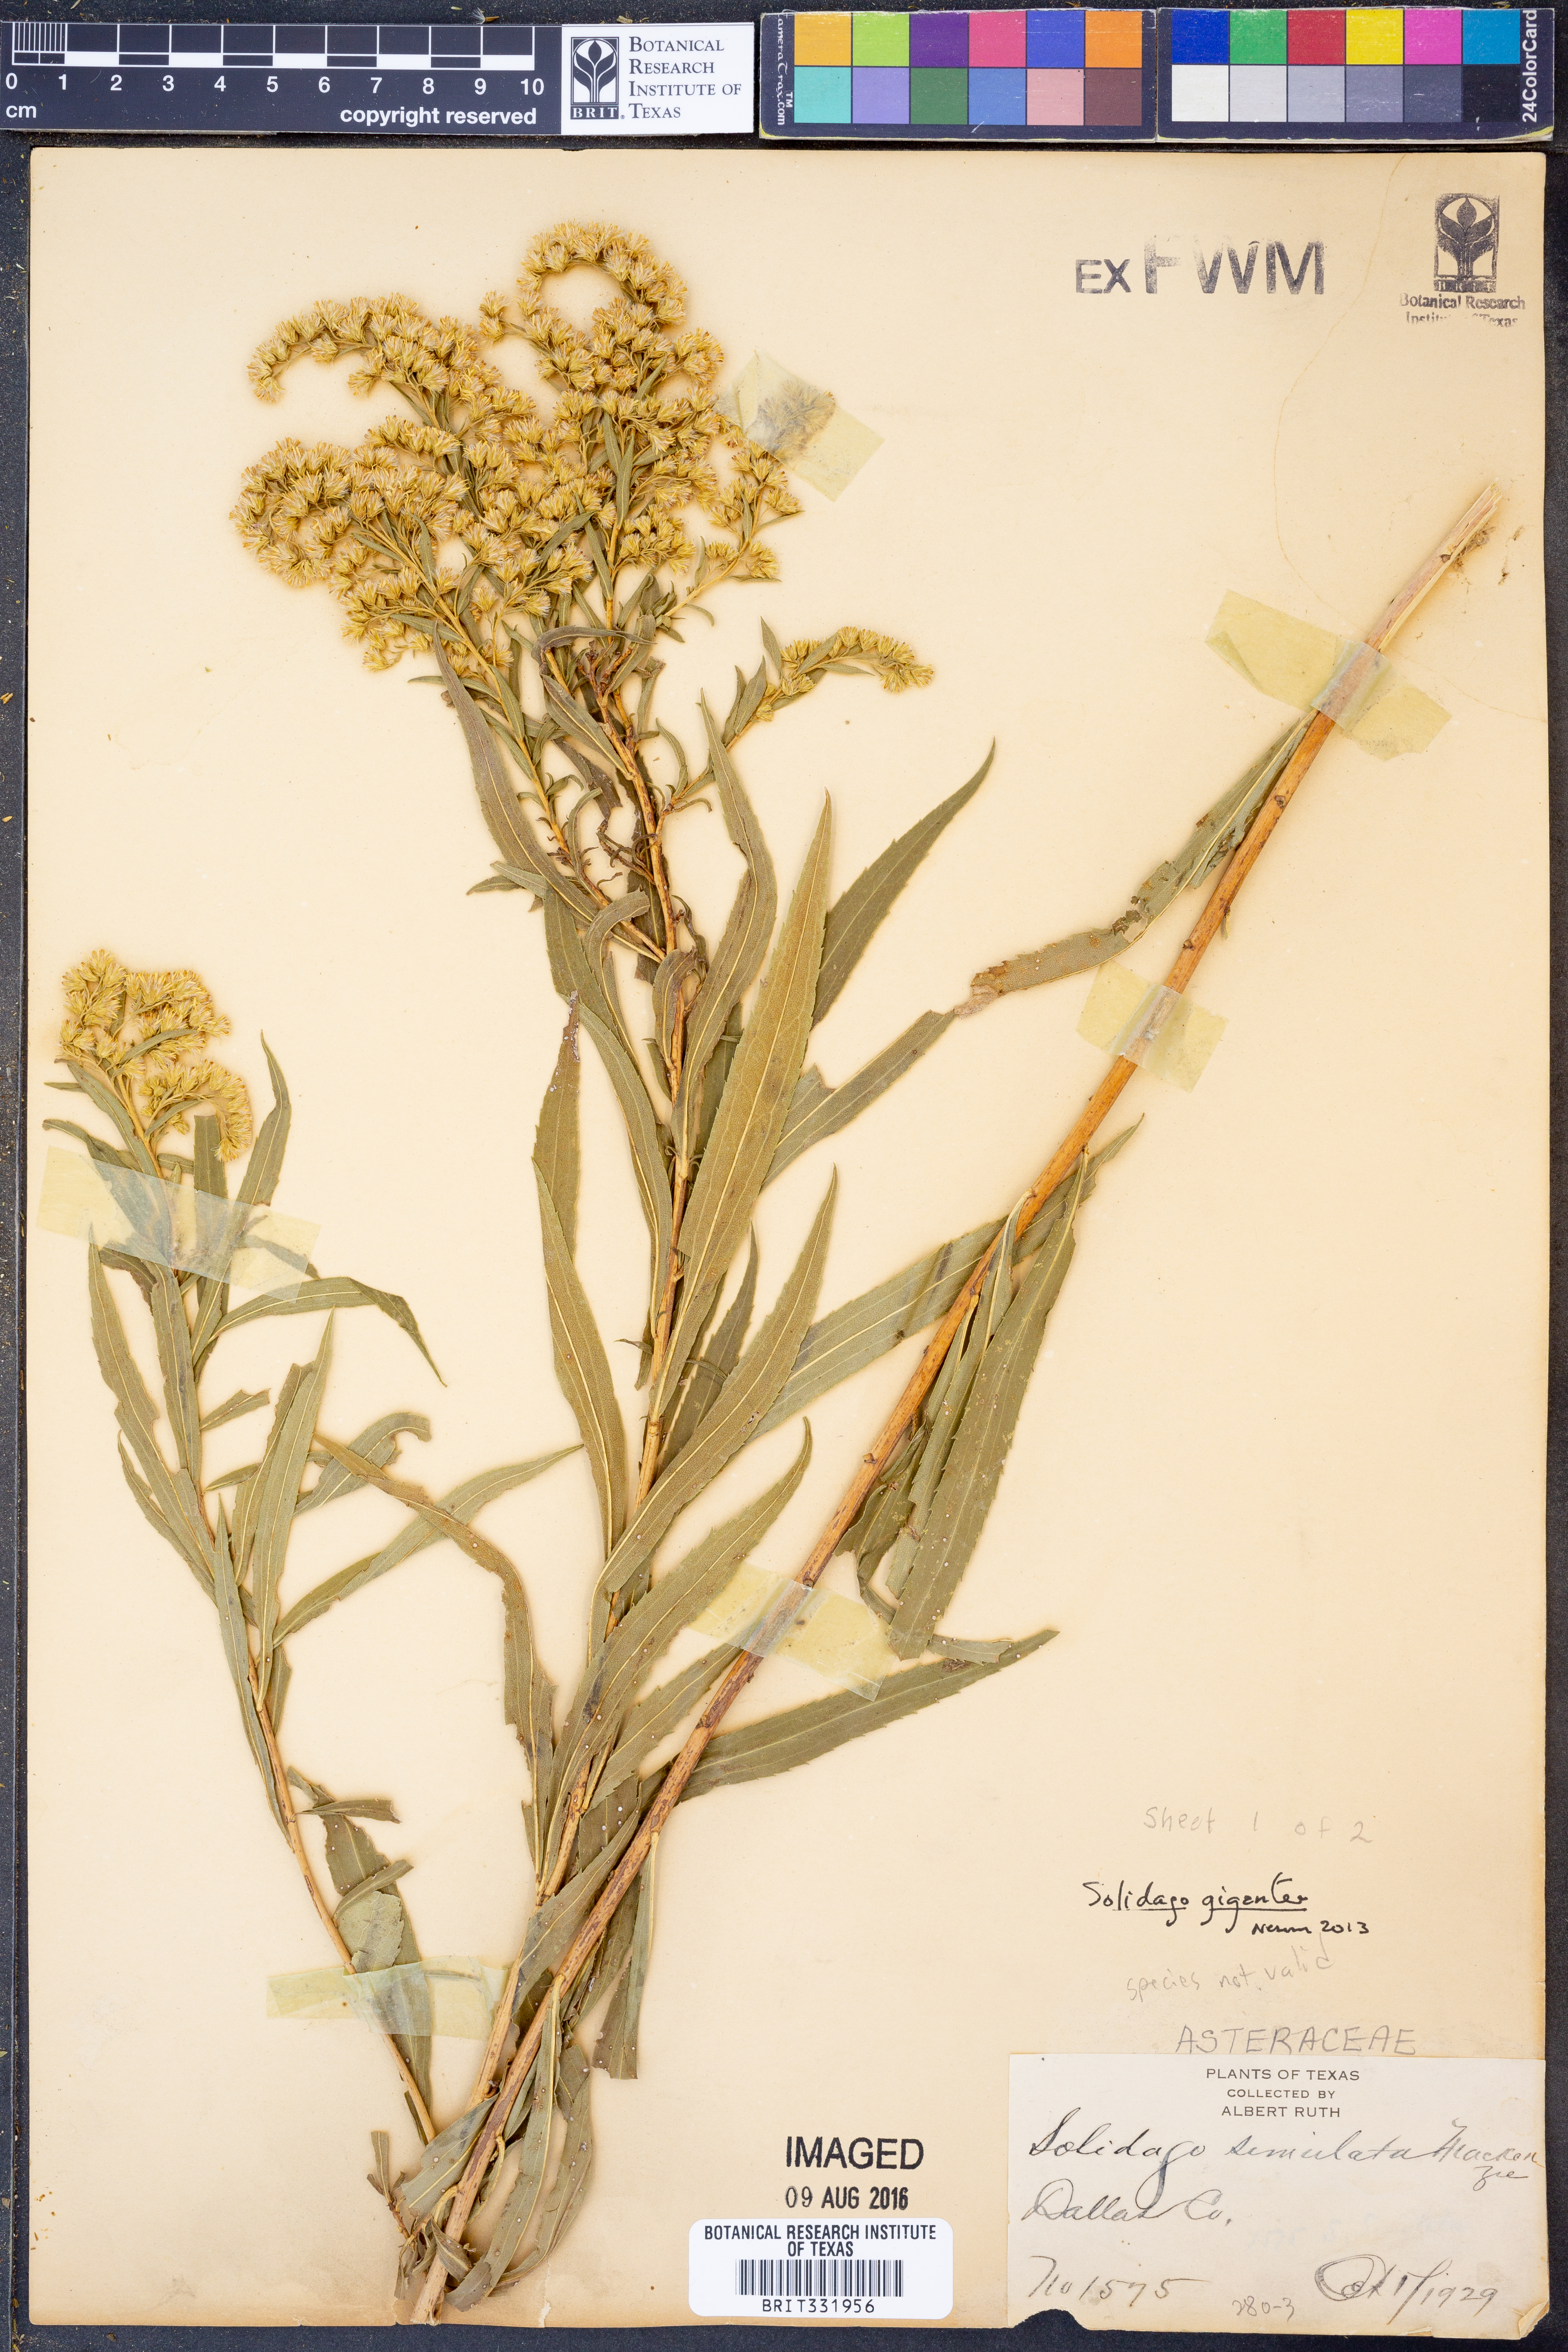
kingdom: Plantae
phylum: Tracheophyta
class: Magnoliopsida
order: Asterales
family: Asteraceae
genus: Solidago
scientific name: Solidago gigantea
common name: Giant goldenrod
